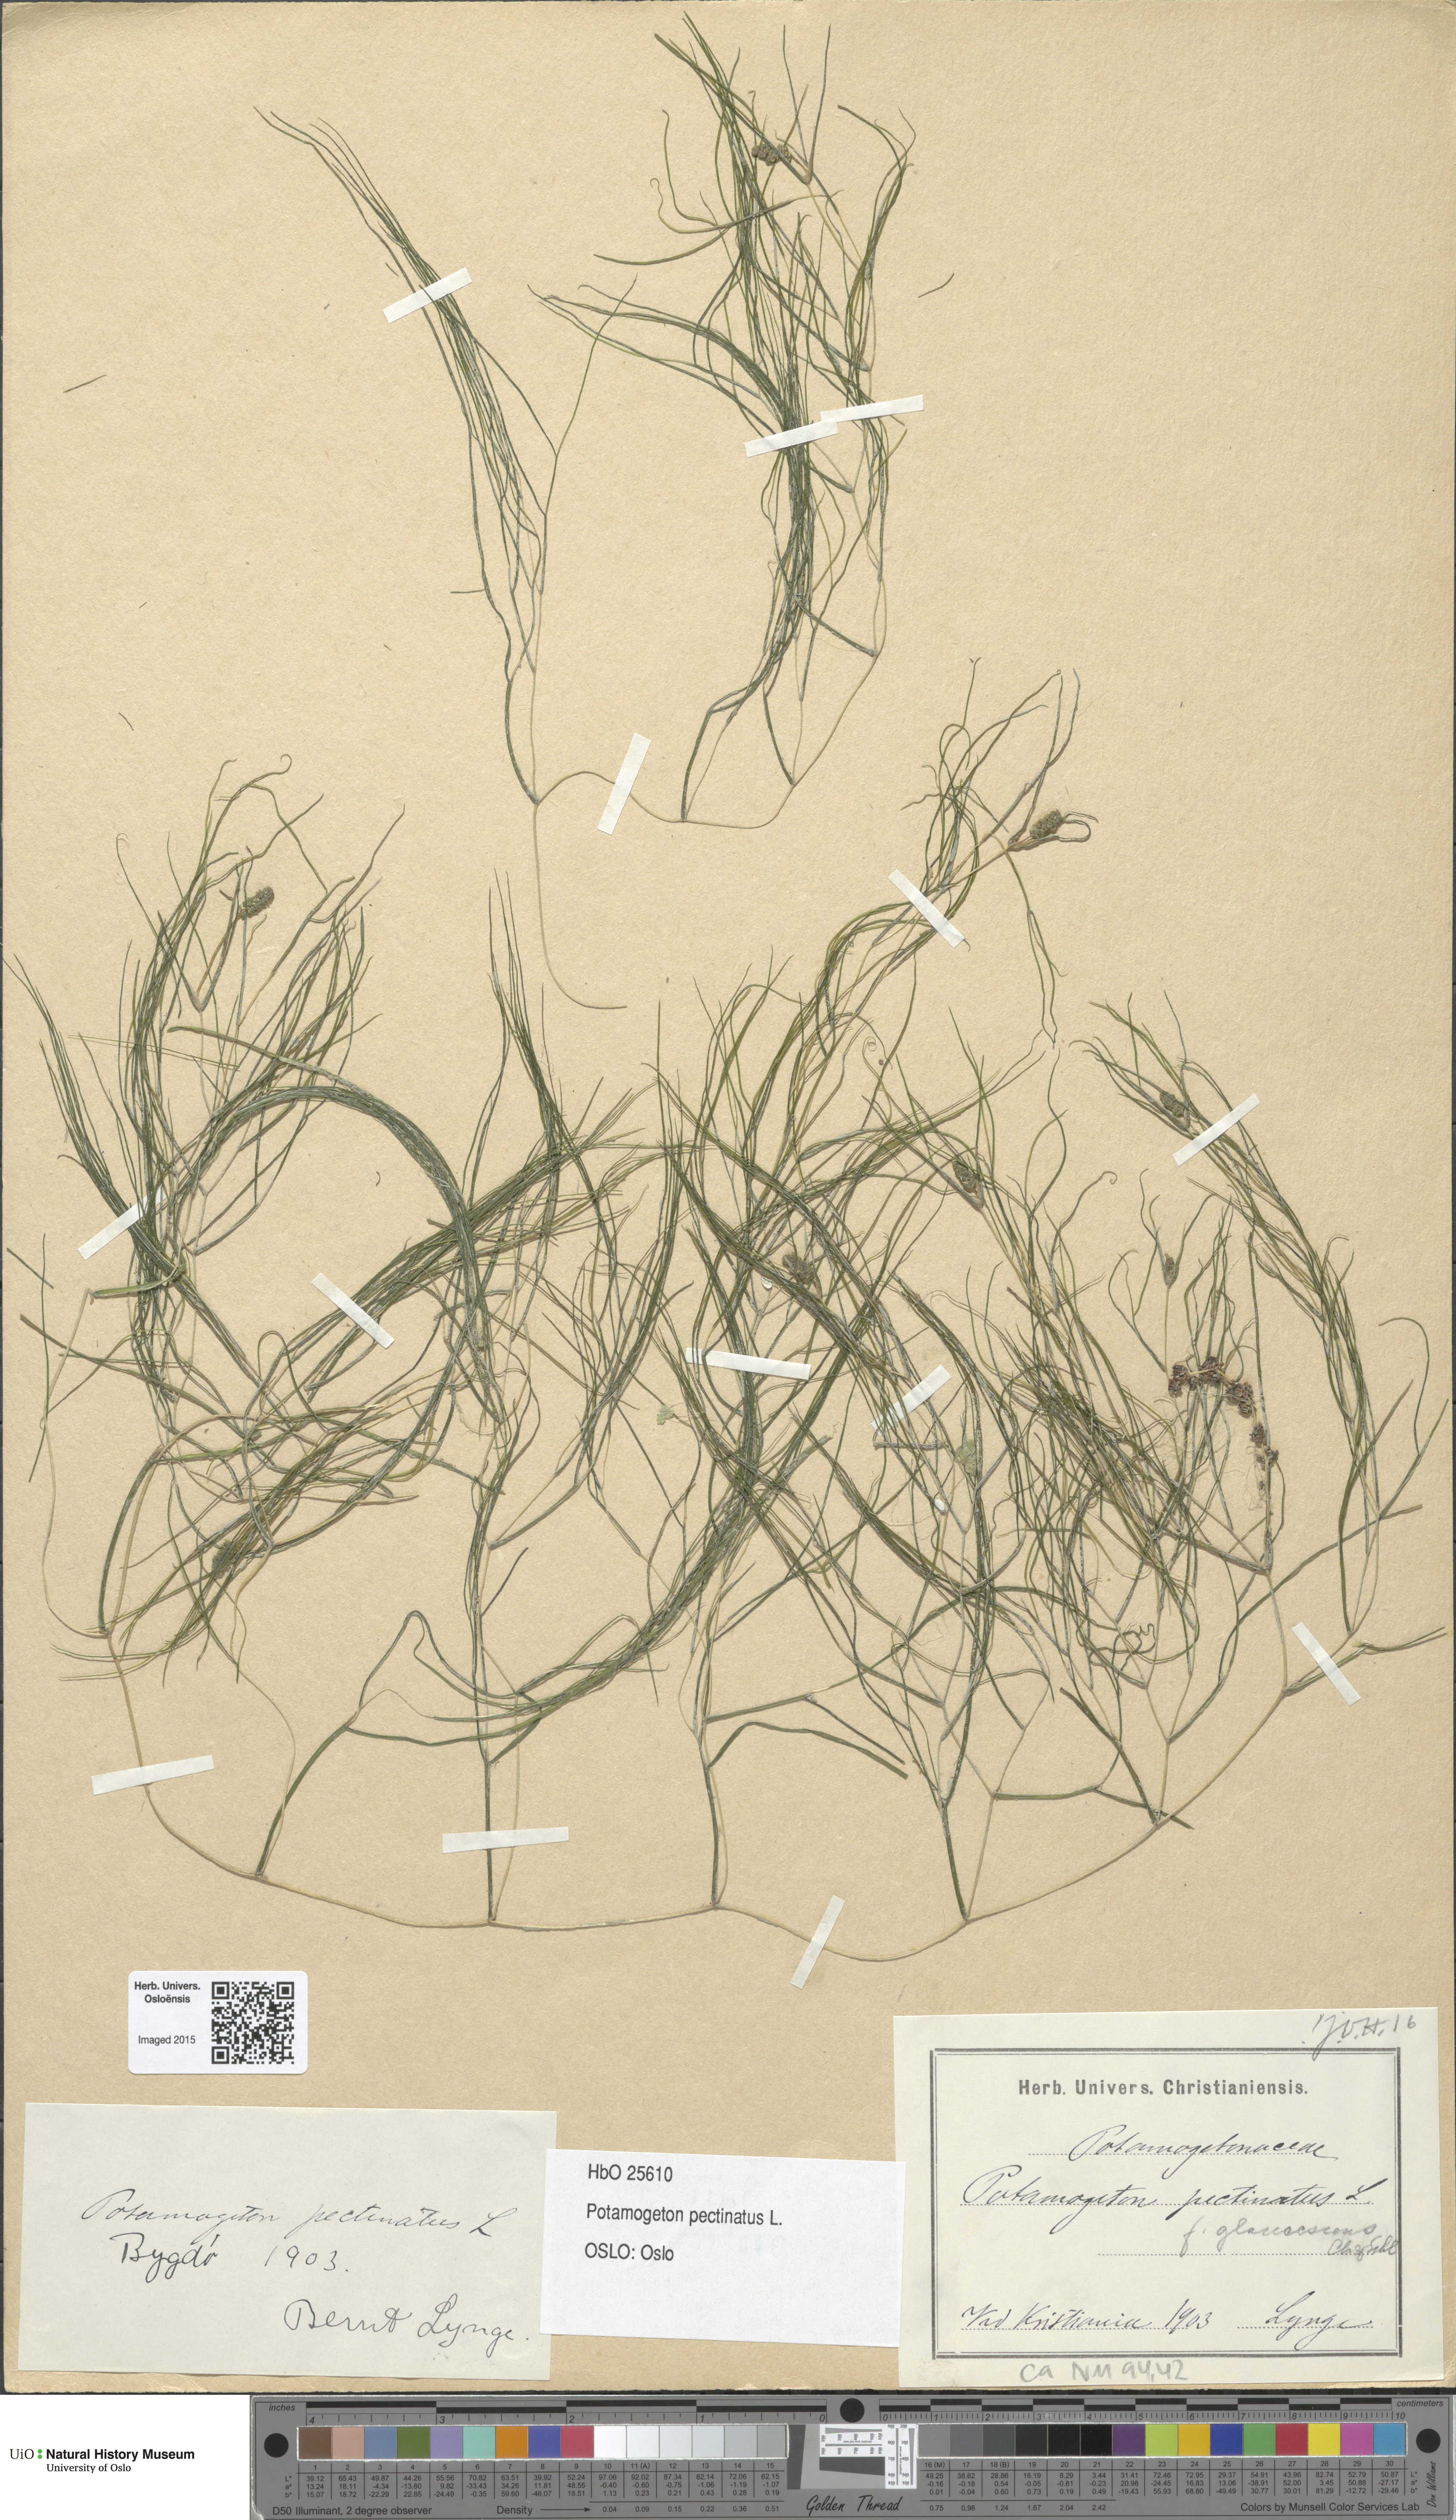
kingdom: Plantae
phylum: Tracheophyta
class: Liliopsida
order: Alismatales
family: Potamogetonaceae
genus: Stuckenia
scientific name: Stuckenia pectinata
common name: Sago pondweed
